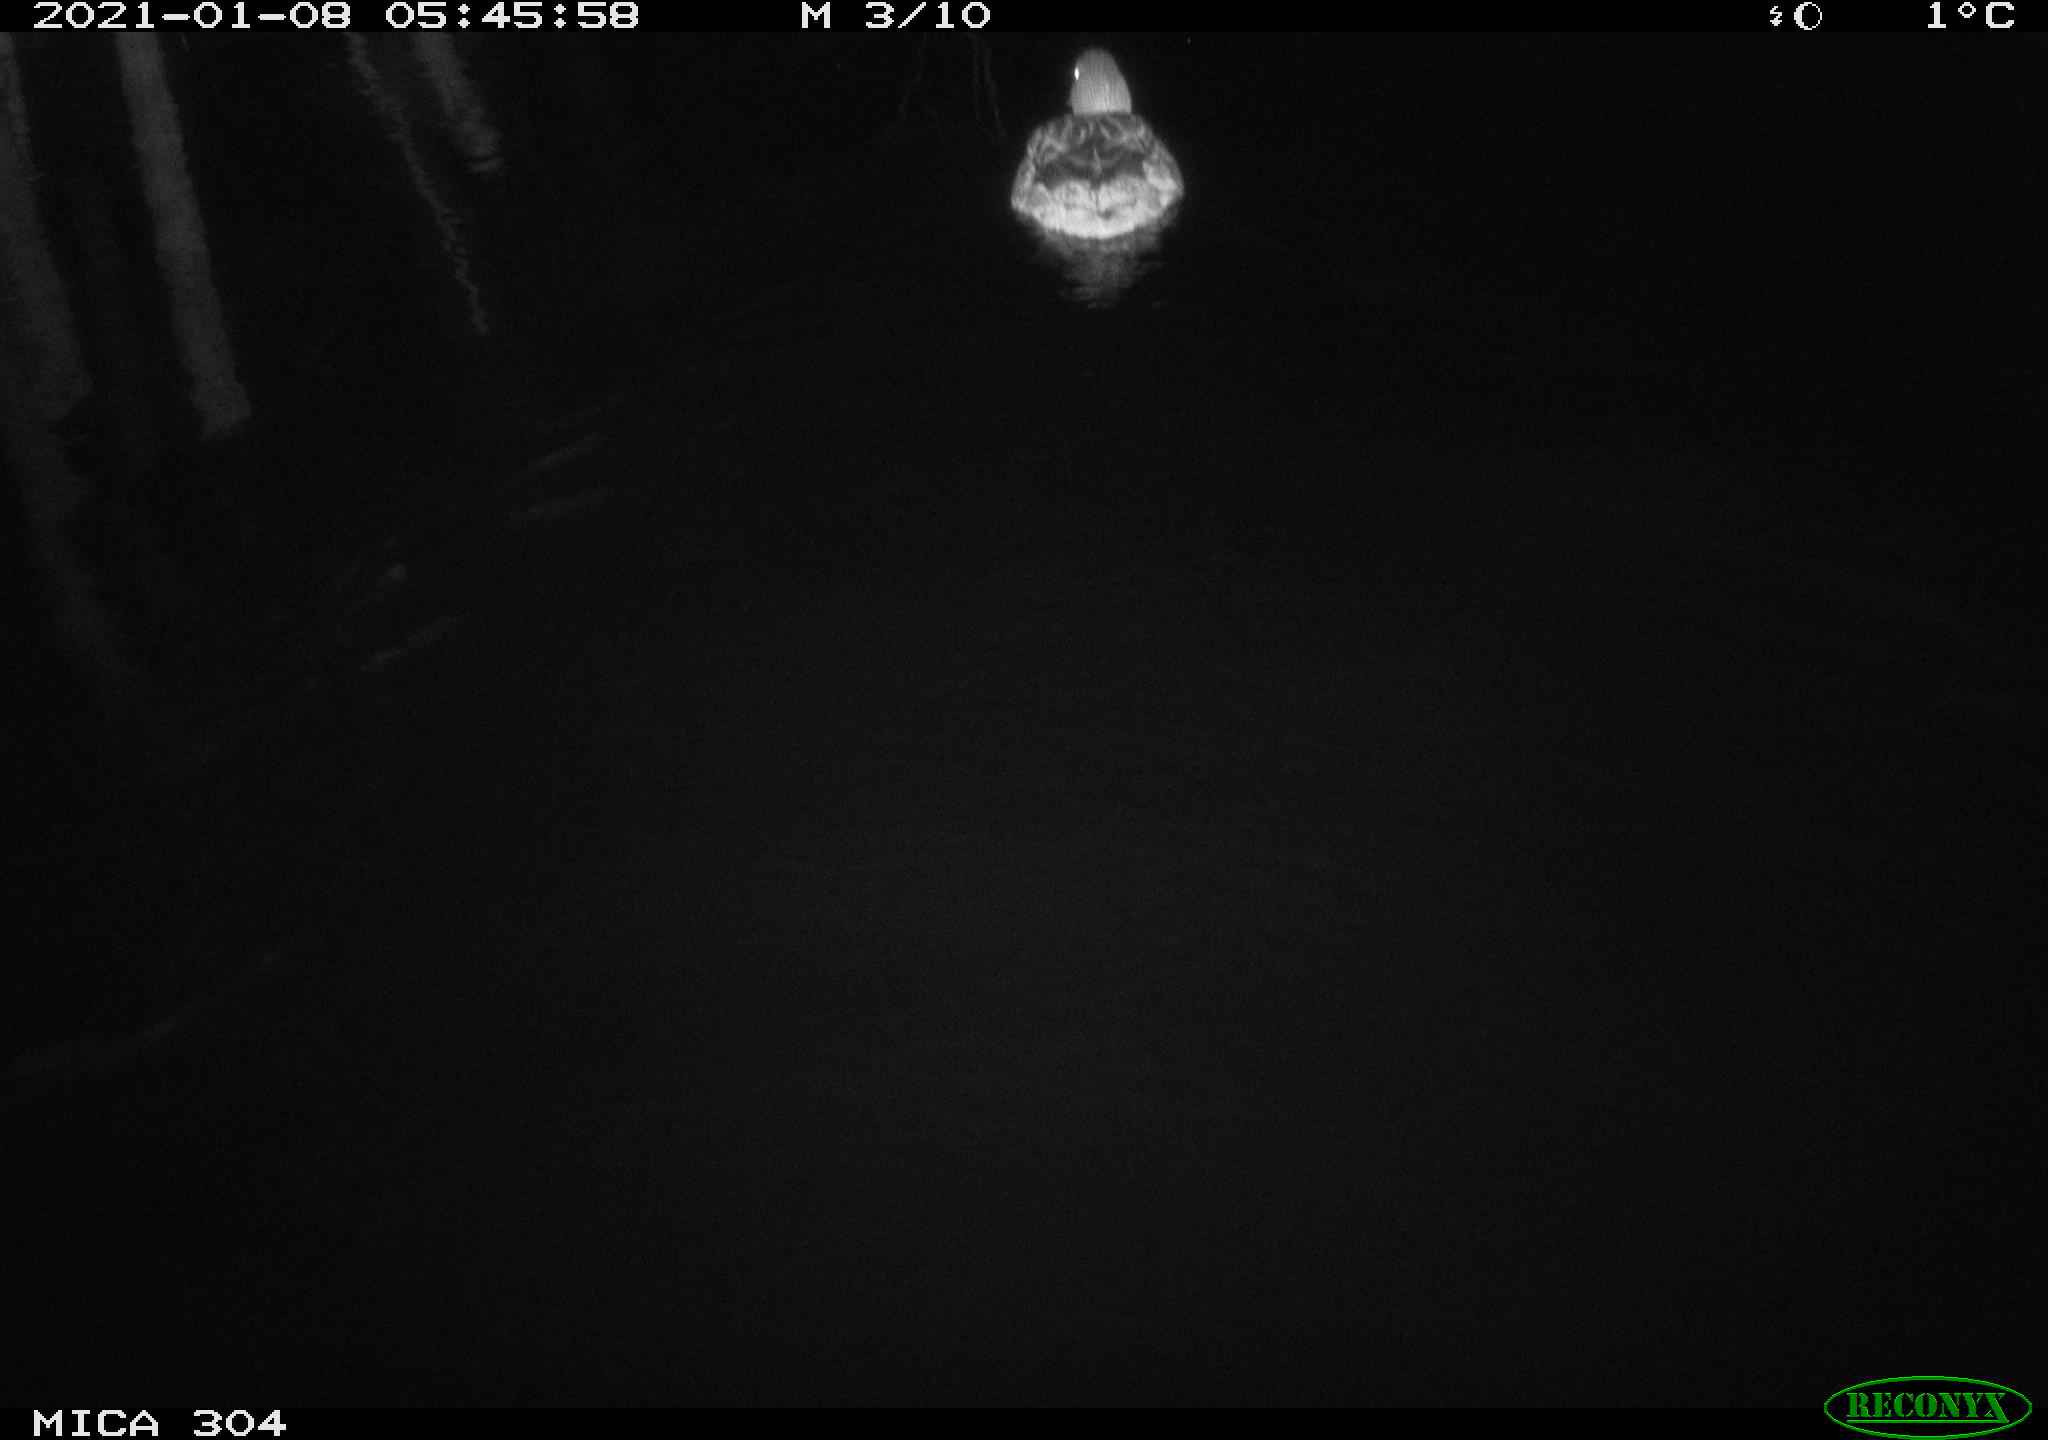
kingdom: Animalia
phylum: Chordata
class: Aves
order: Anseriformes
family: Anatidae
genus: Anas
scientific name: Anas platyrhynchos
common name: Mallard
